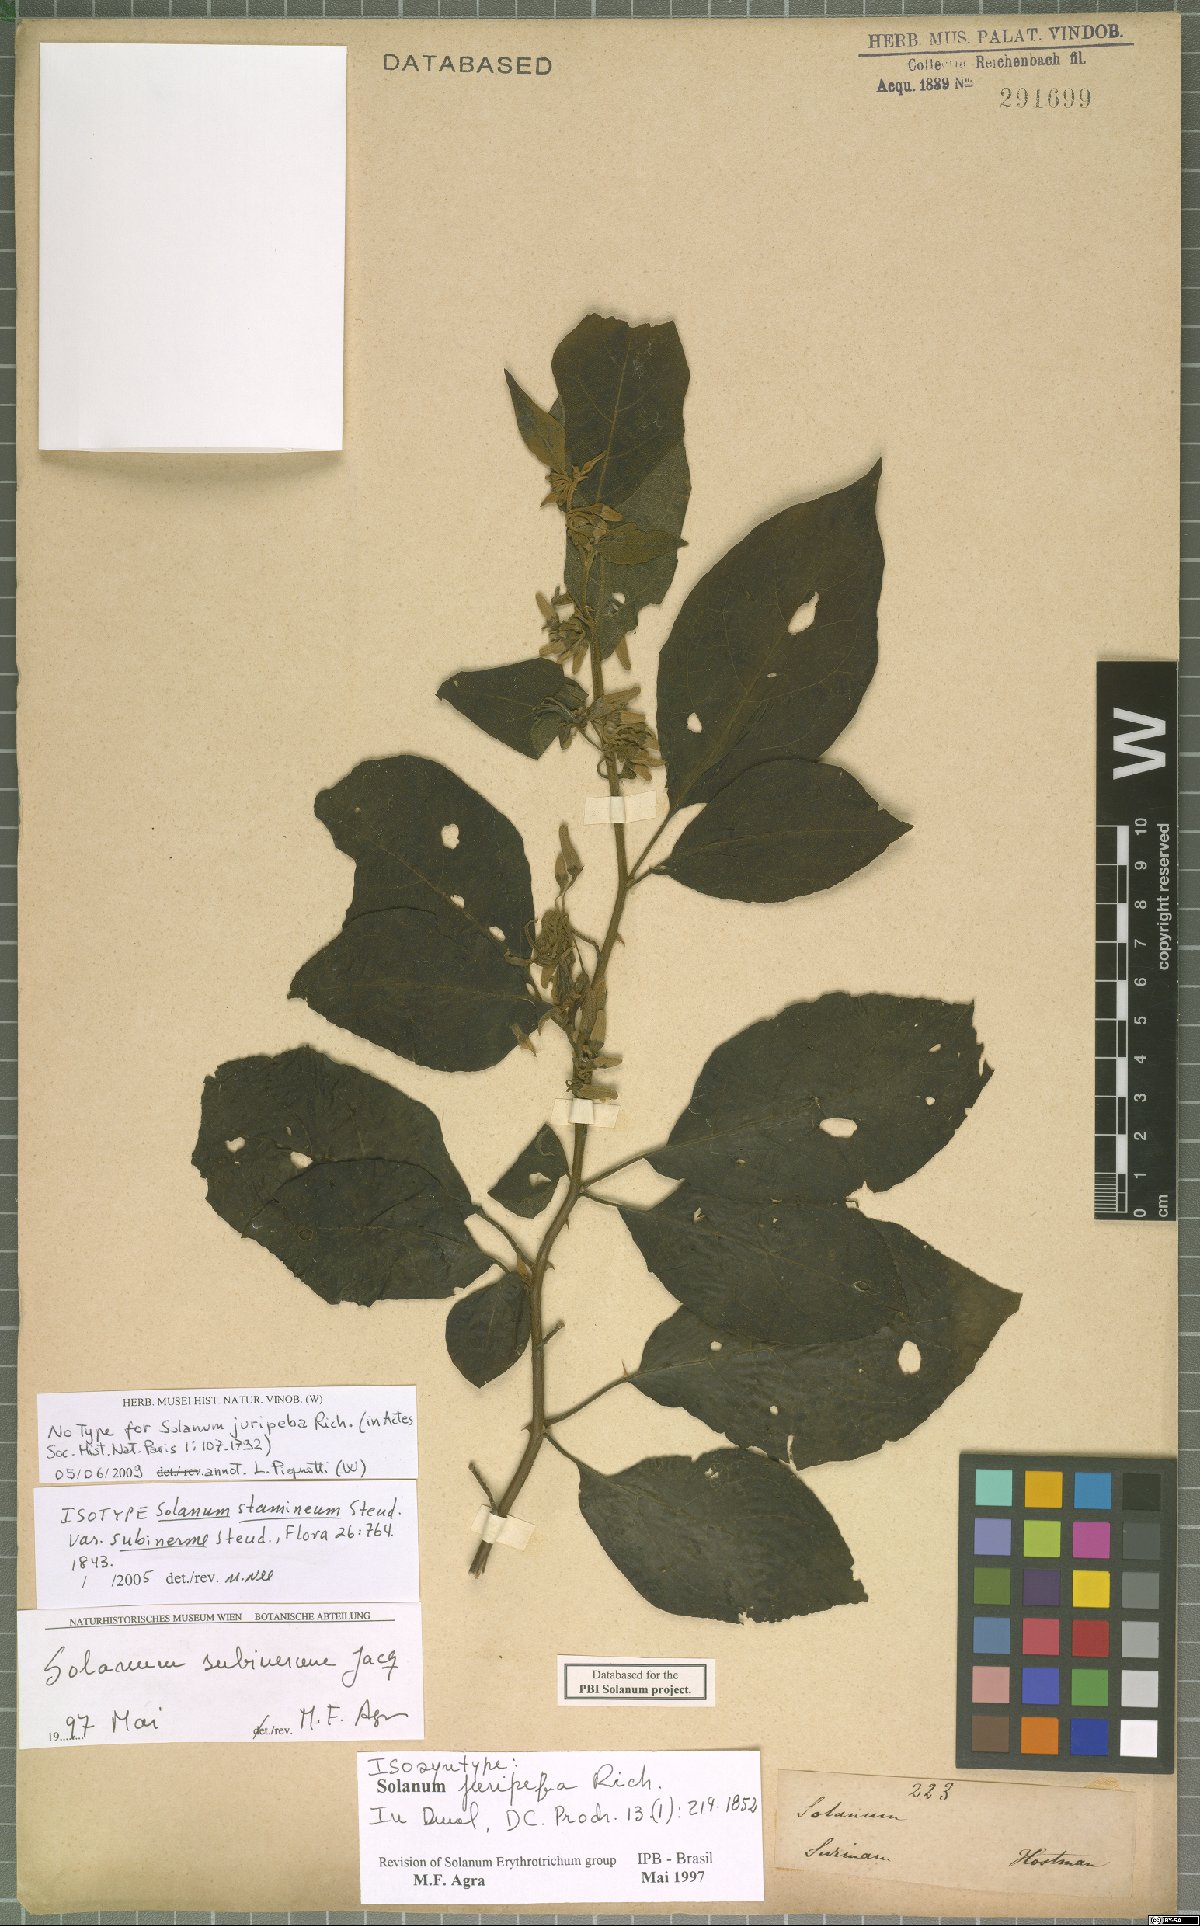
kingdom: Plantae
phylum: Tracheophyta
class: Magnoliopsida
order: Solanales
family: Solanaceae
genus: Solanum
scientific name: Solanum subinerme
